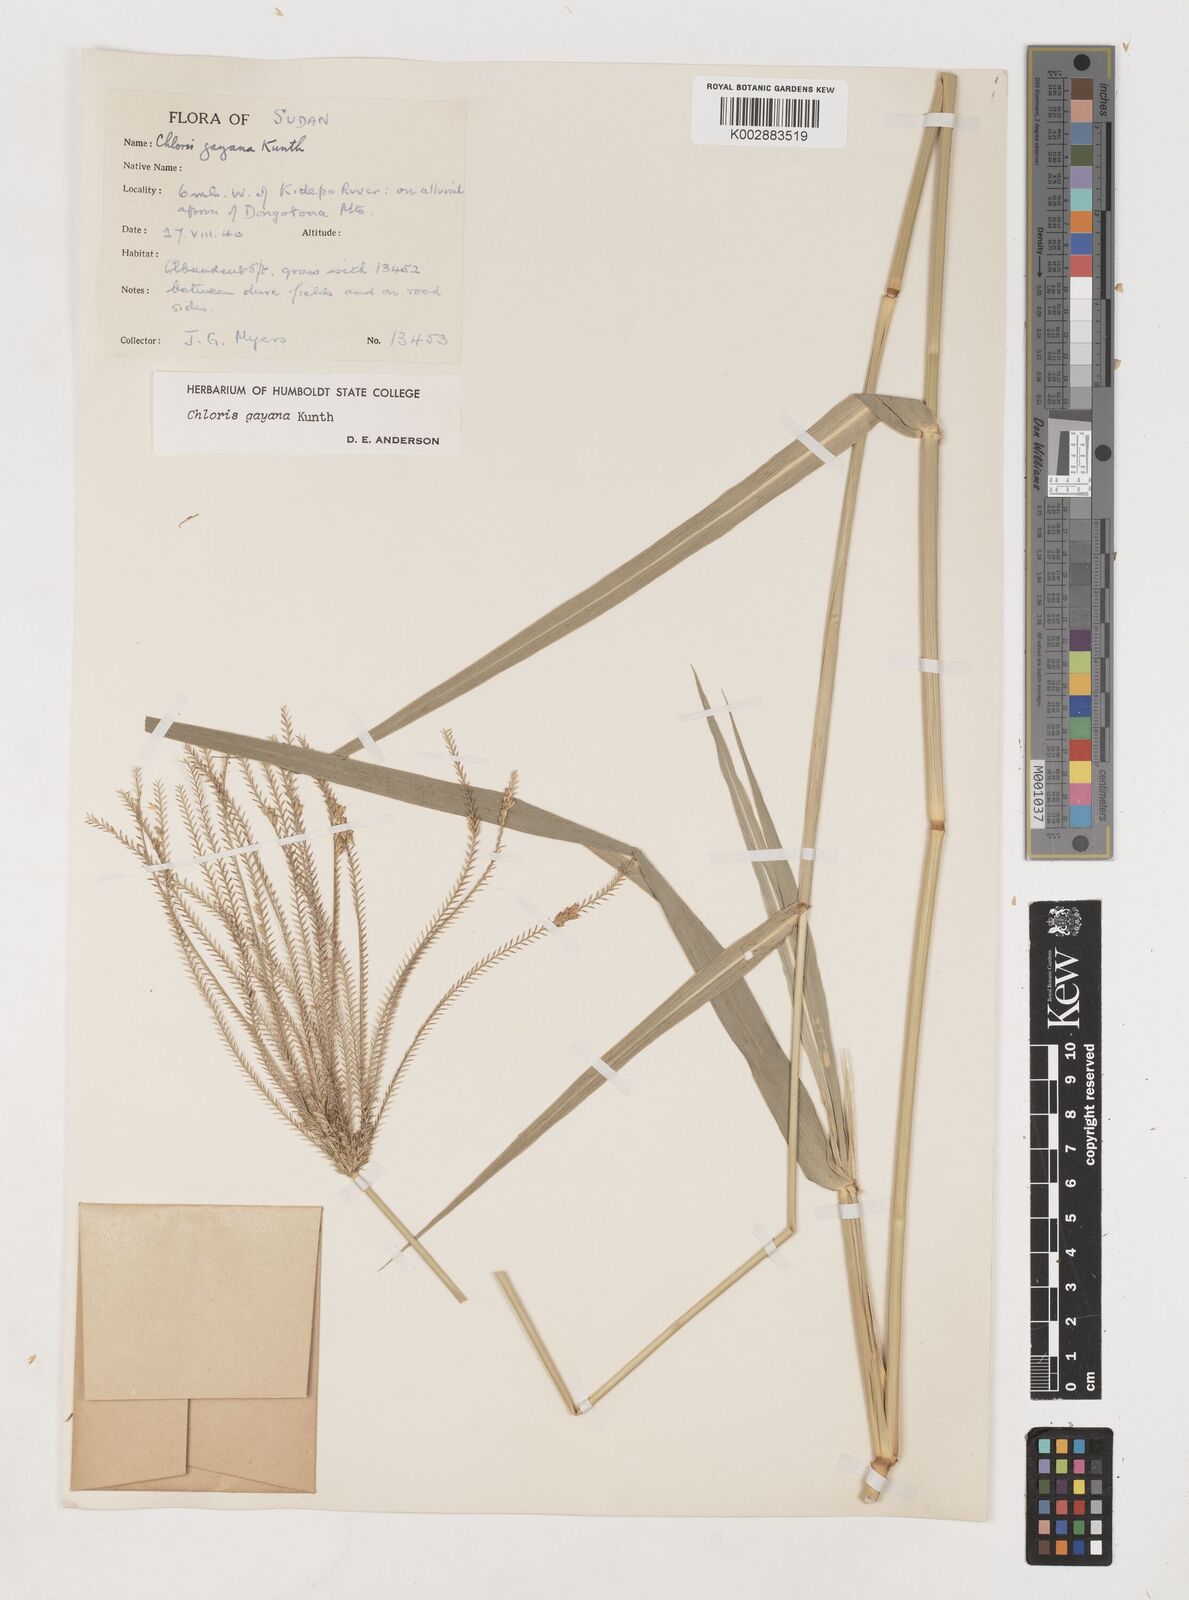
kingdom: Plantae
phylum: Tracheophyta
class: Liliopsida
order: Poales
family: Poaceae
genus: Chloris
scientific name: Chloris gayana
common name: Rhodes grass
